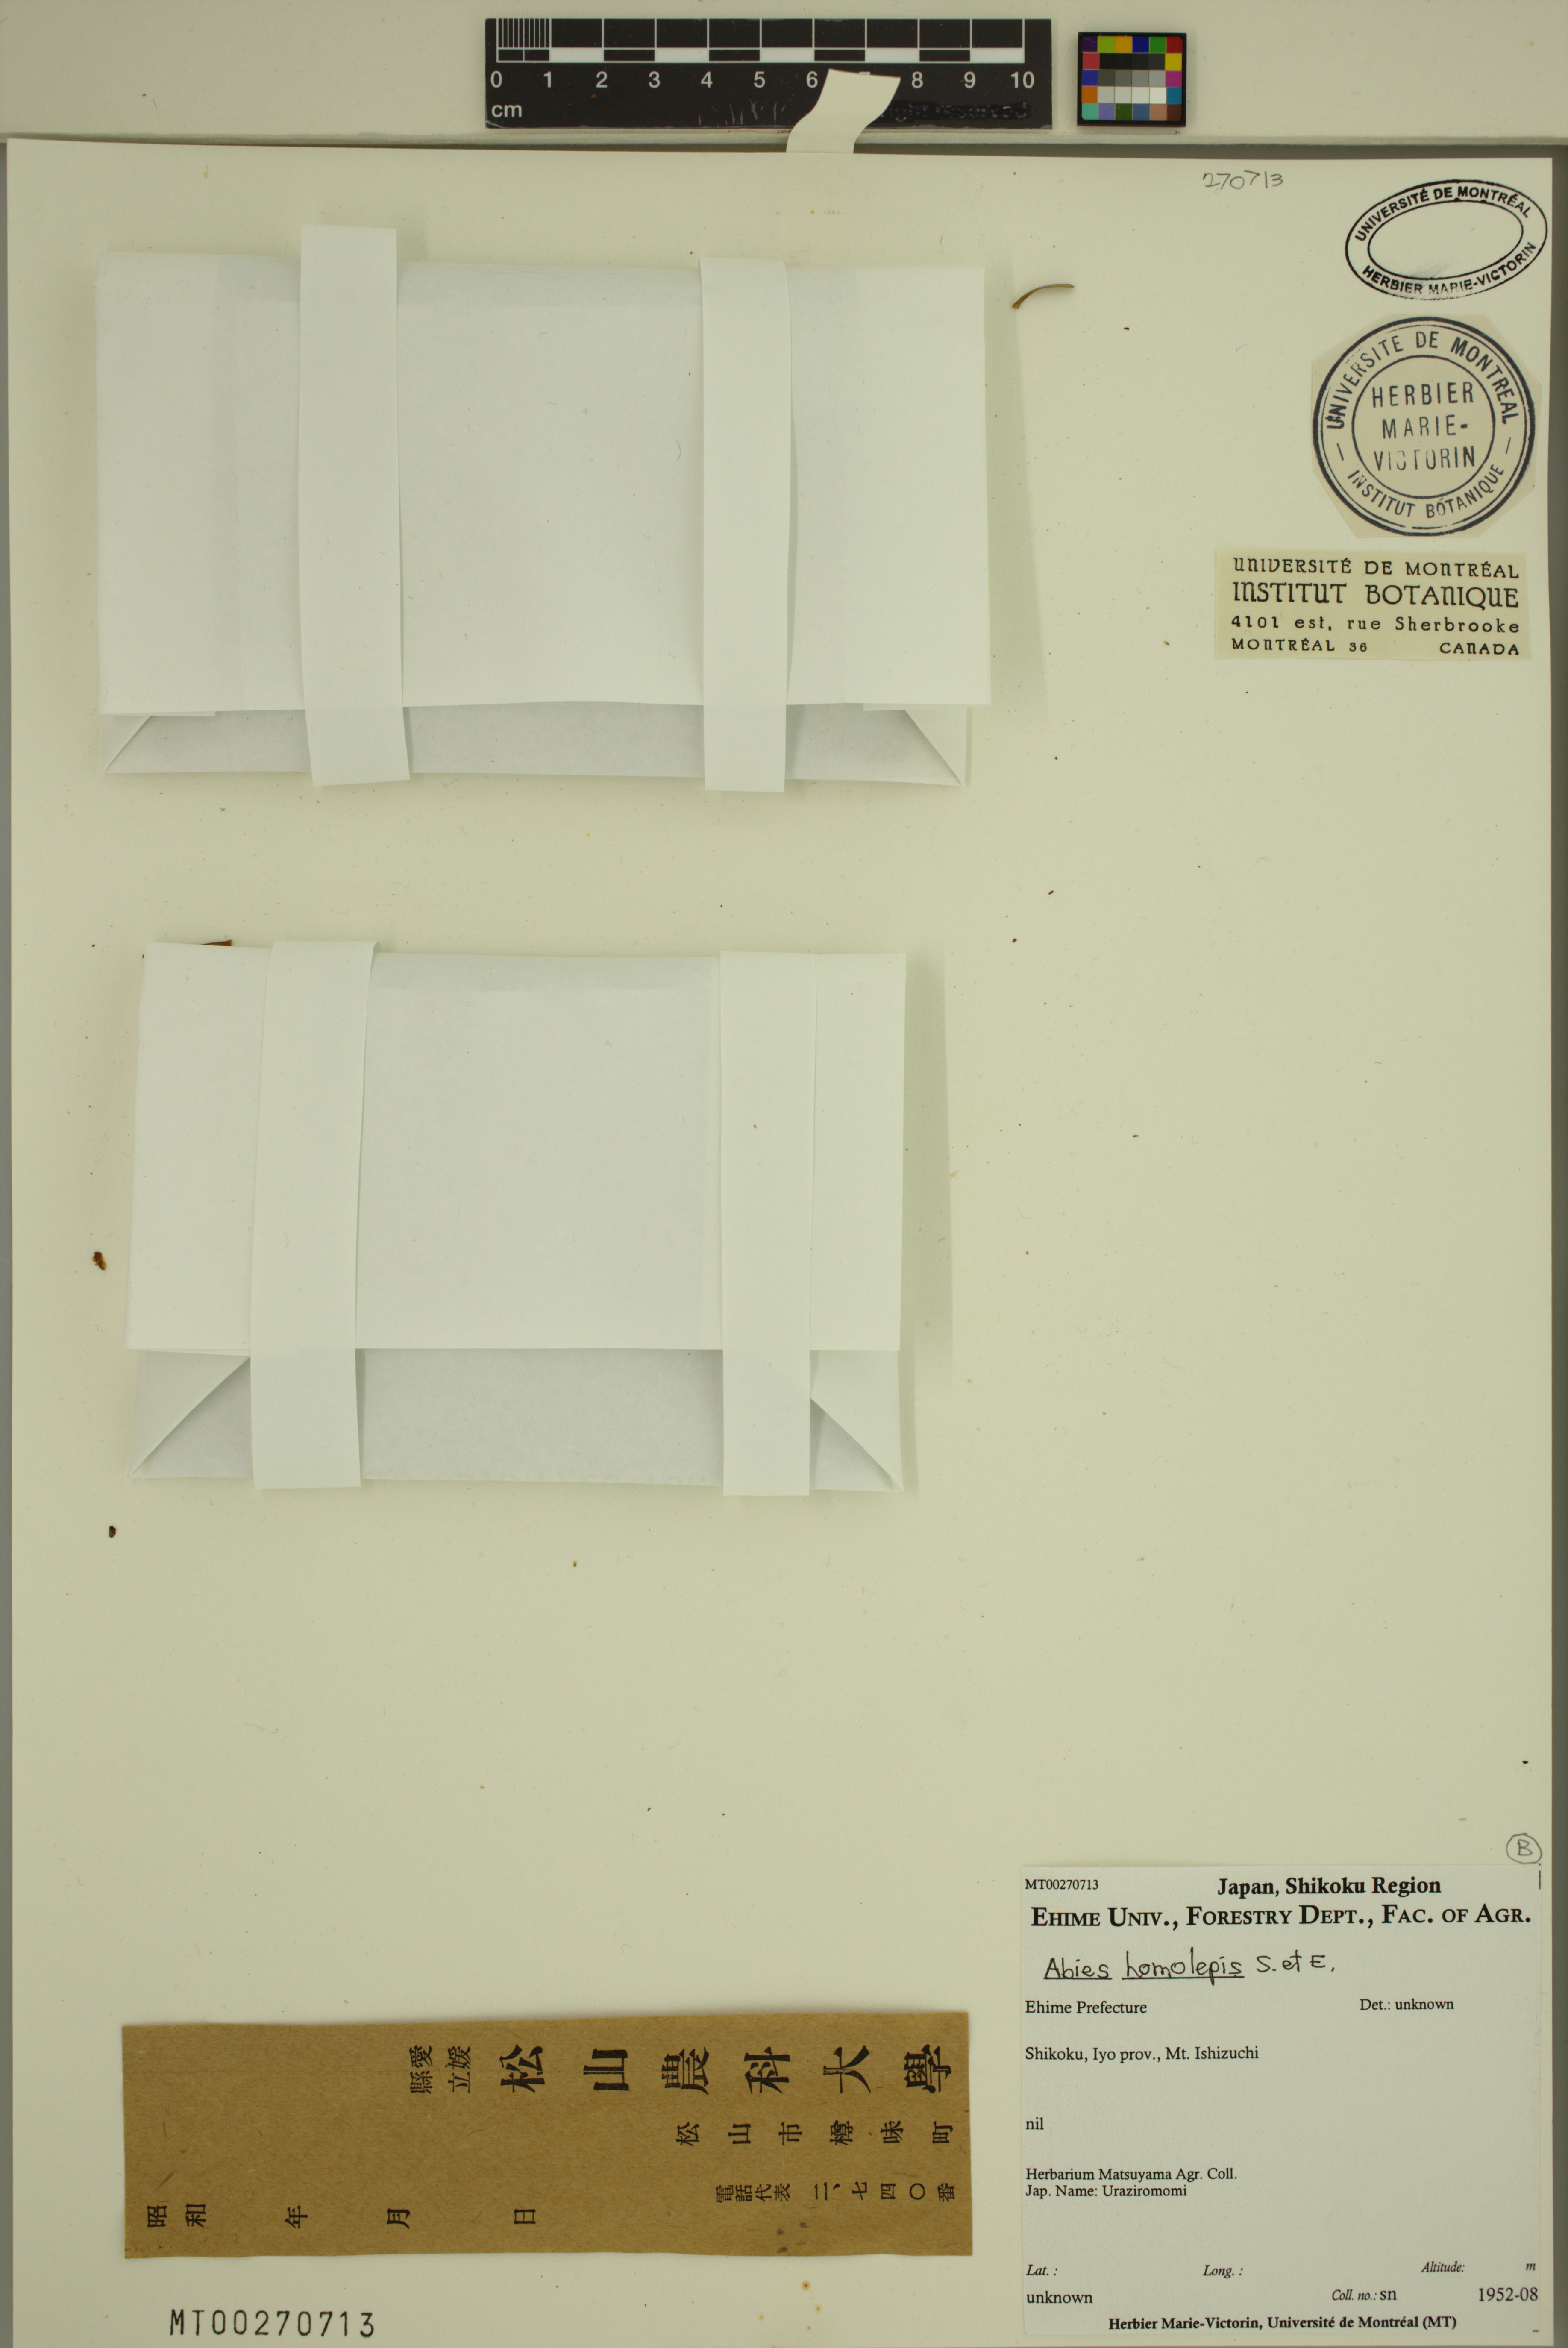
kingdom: Plantae
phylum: Tracheophyta
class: Pinopsida
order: Pinales
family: Pinaceae
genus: Abies
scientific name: Abies homolepis
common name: Nikko fir
